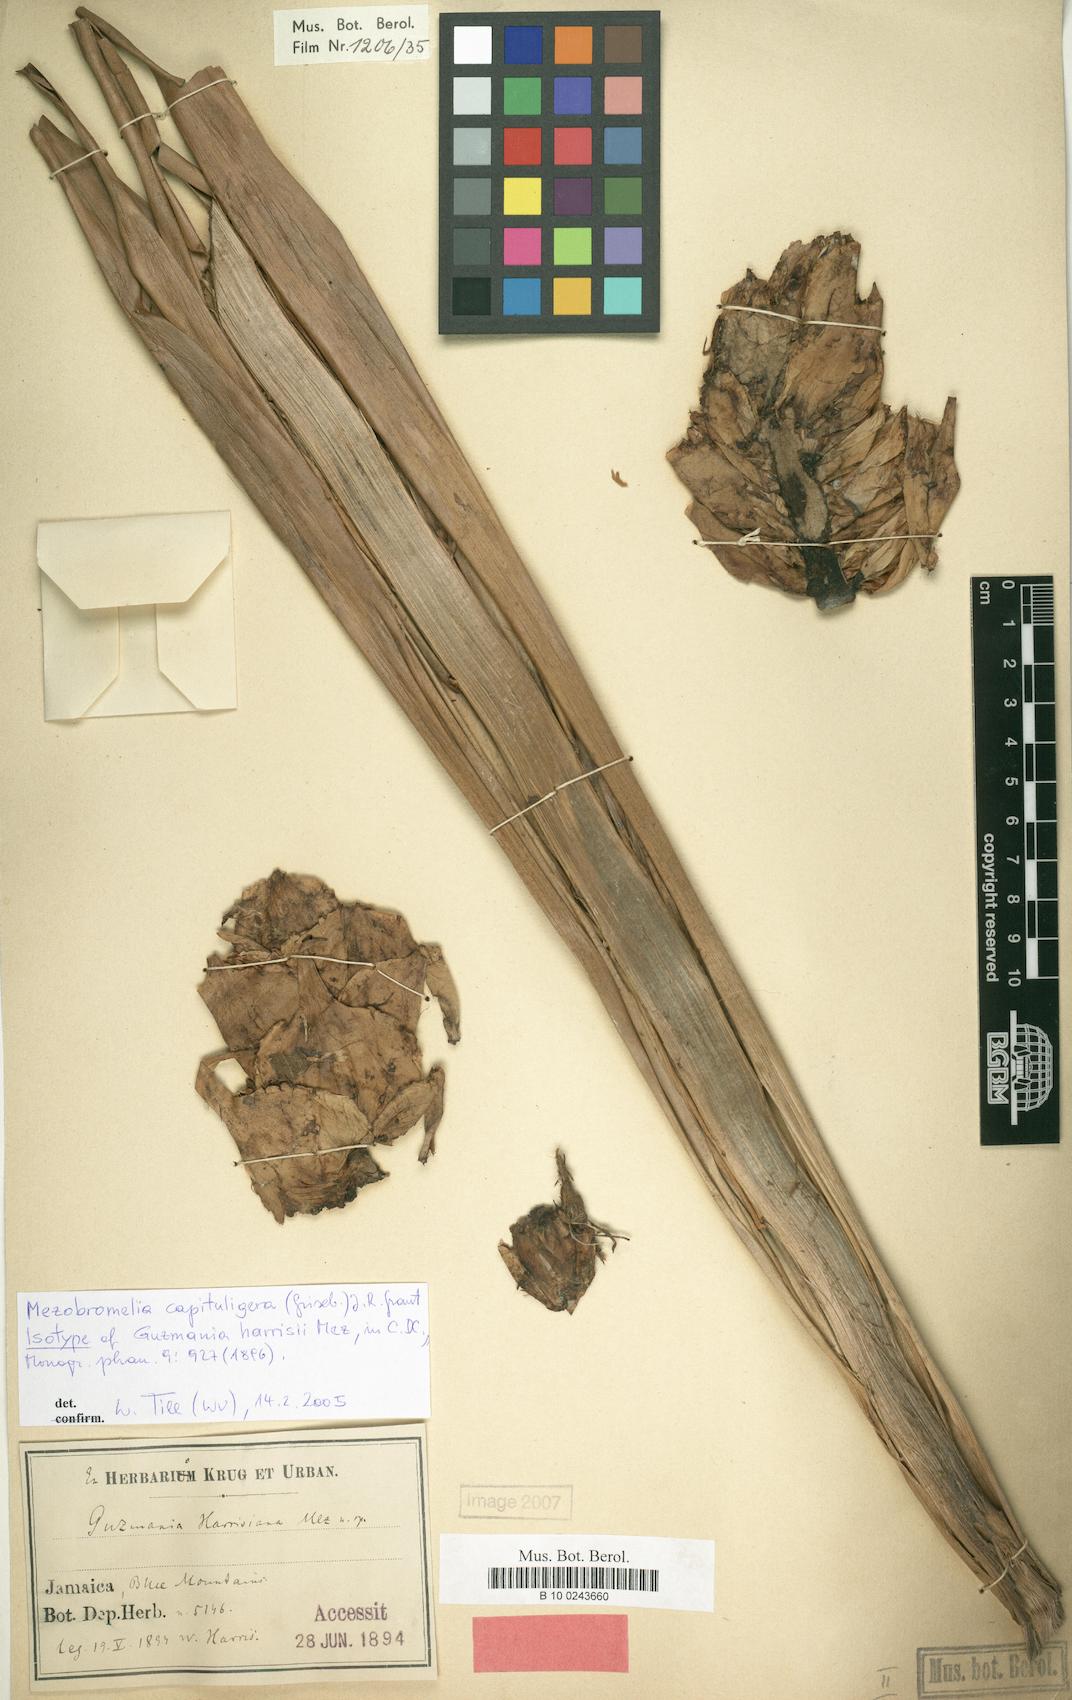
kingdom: Plantae
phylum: Tracheophyta
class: Liliopsida
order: Poales
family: Bromeliaceae
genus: Cipuropsis
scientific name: Cipuropsis capituligera
